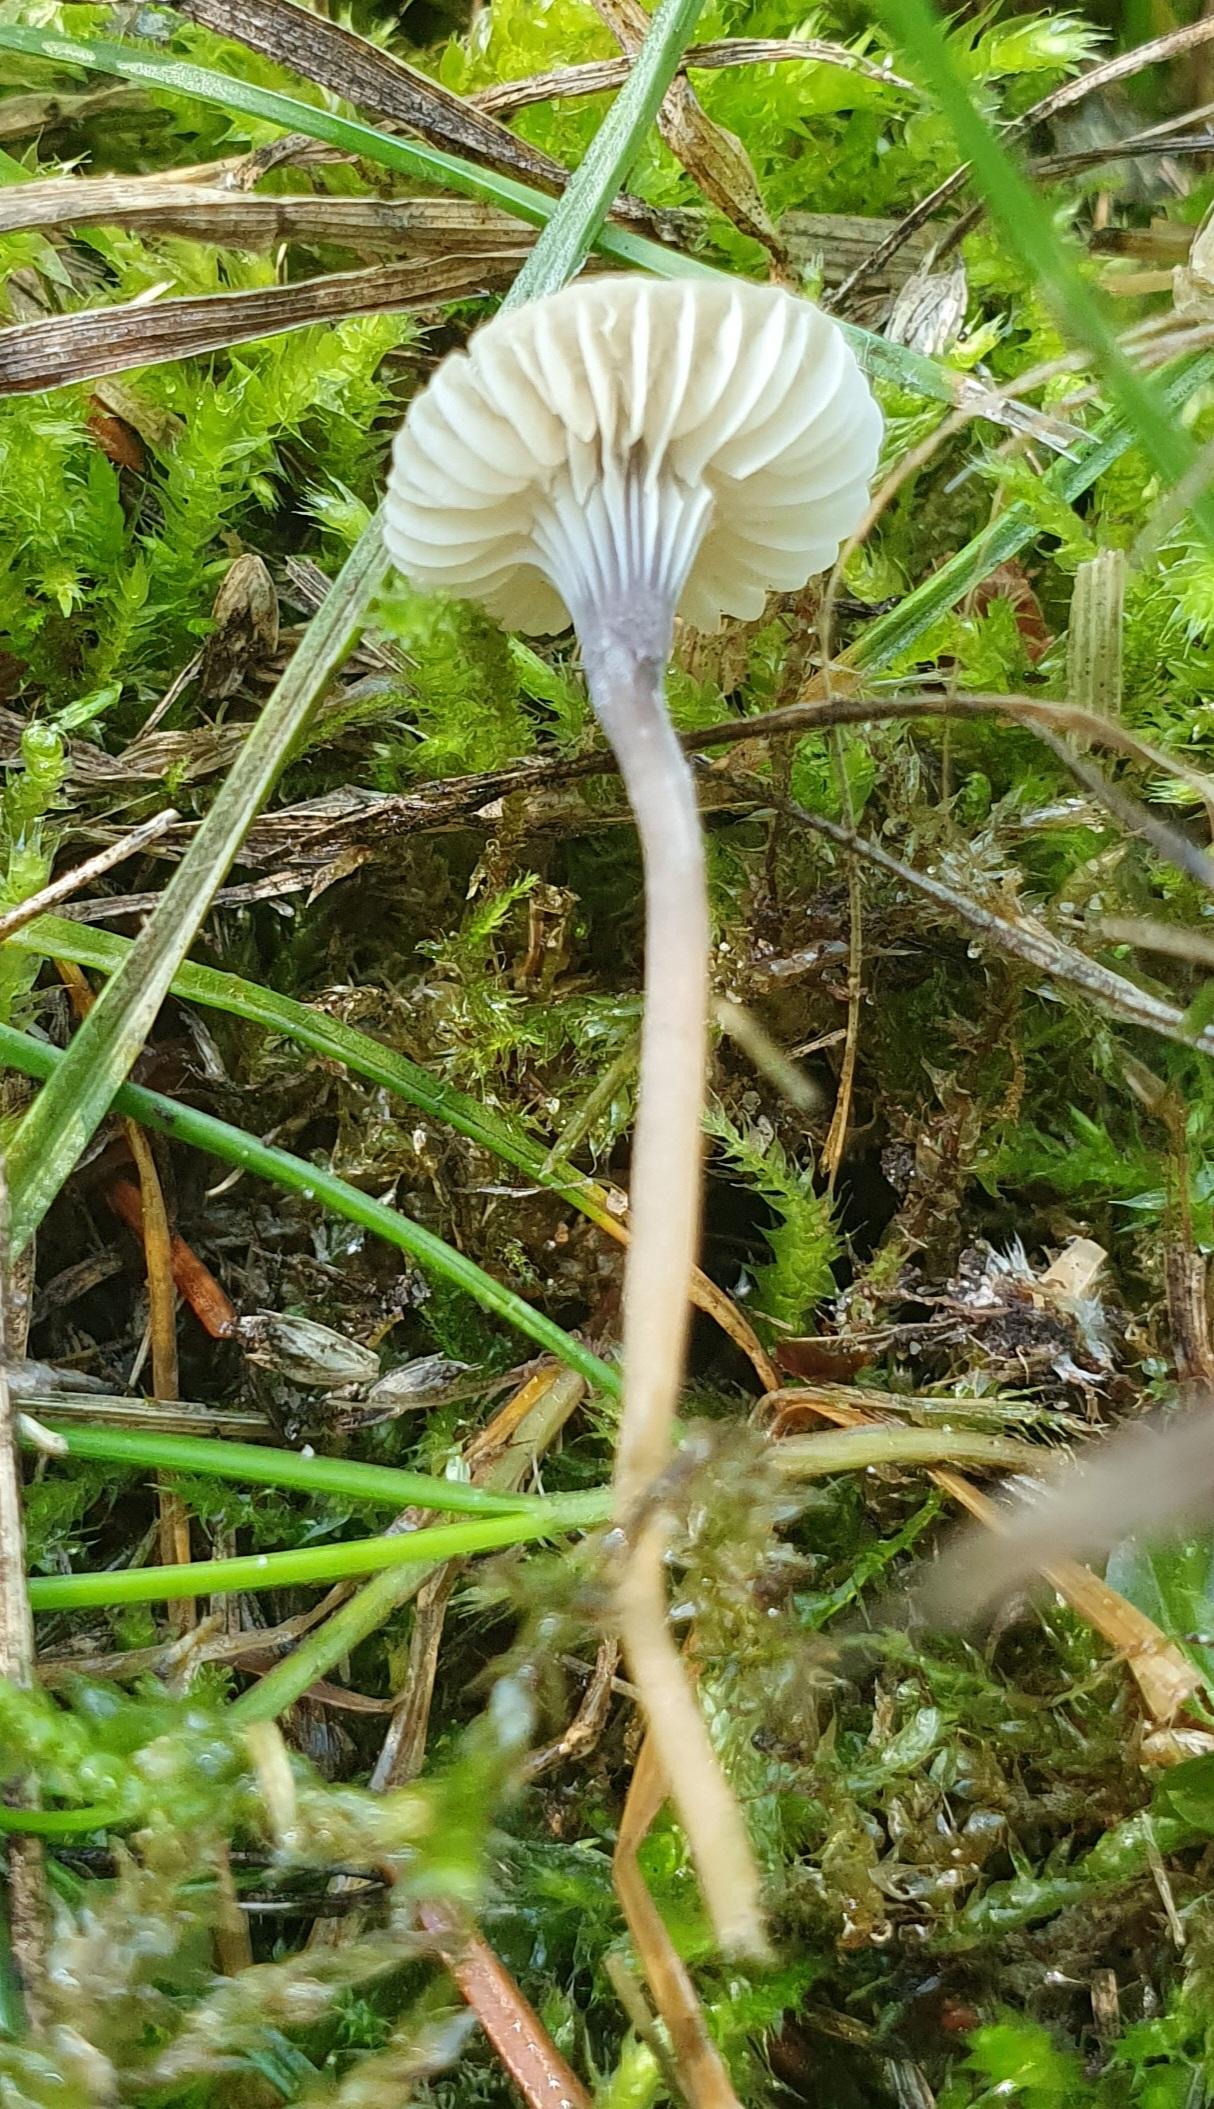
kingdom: Fungi
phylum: Basidiomycota
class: Agaricomycetes
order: Hymenochaetales
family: Rickenellaceae
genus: Rickenella
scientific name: Rickenella swartzii
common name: finstokket mosnavlehat
